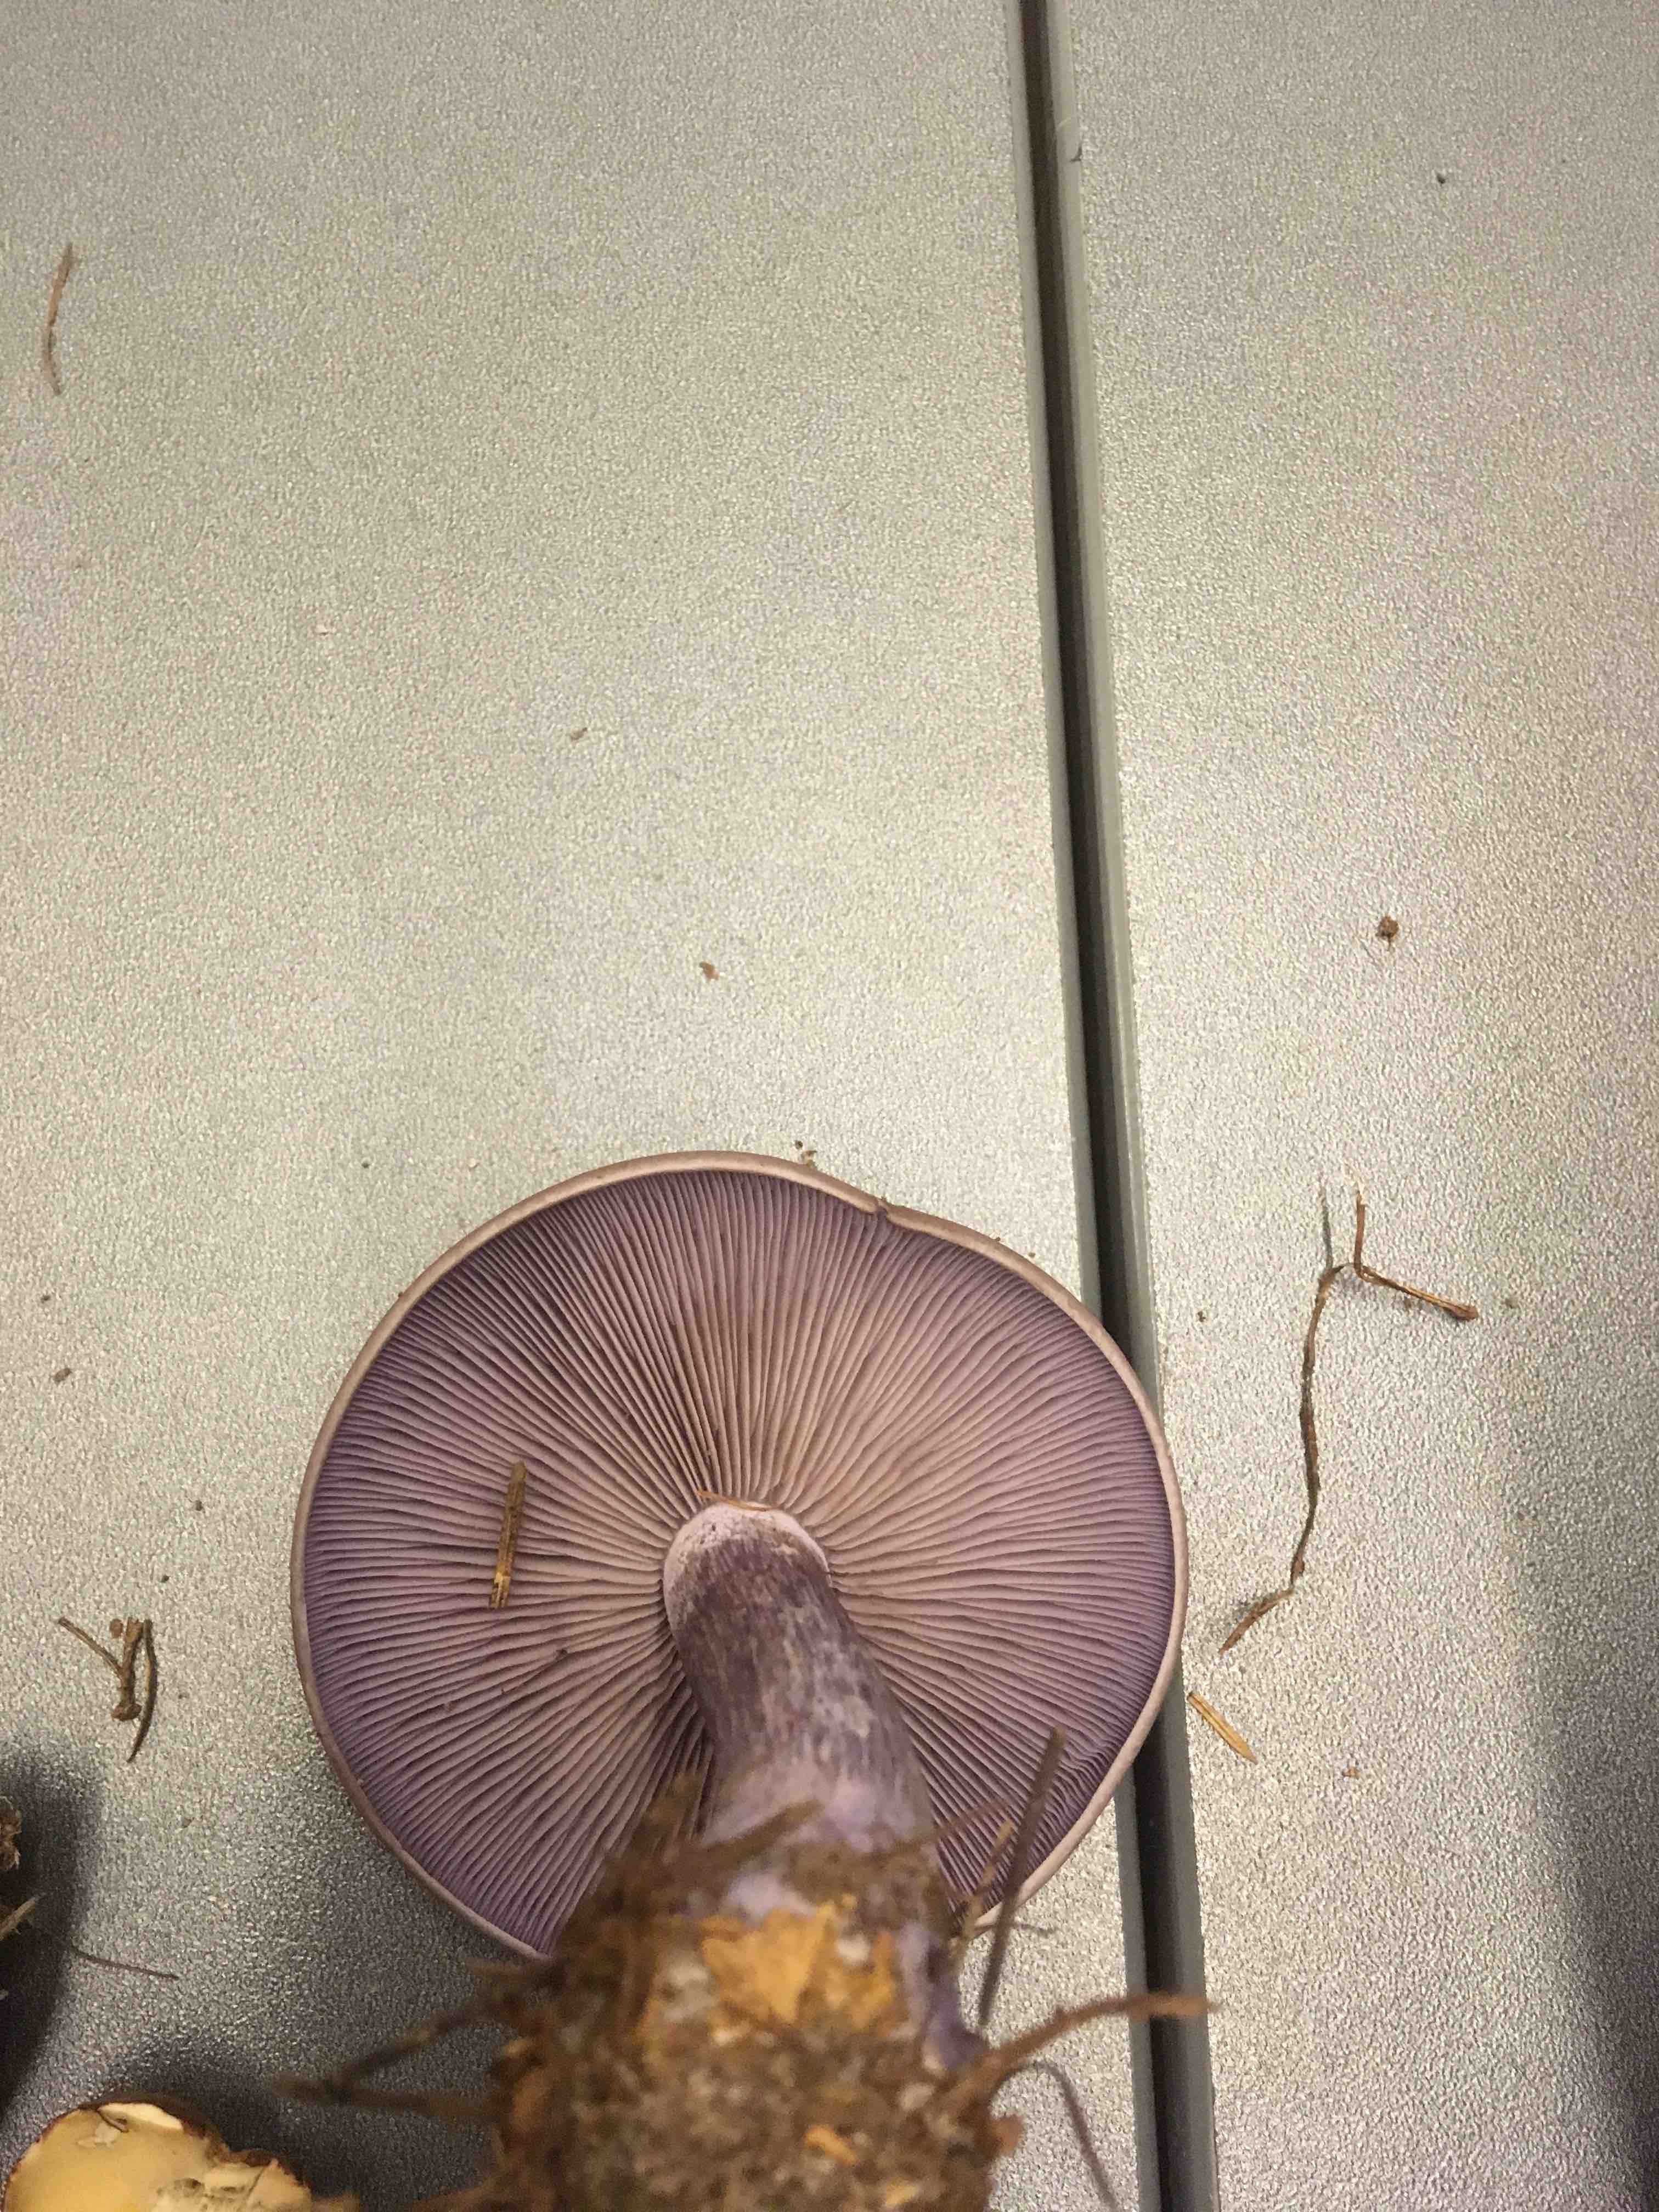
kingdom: Fungi
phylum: Basidiomycota
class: Agaricomycetes
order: Agaricales
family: Tricholomataceae
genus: Lepista
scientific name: Lepista nuda
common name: violet hekseringshat
